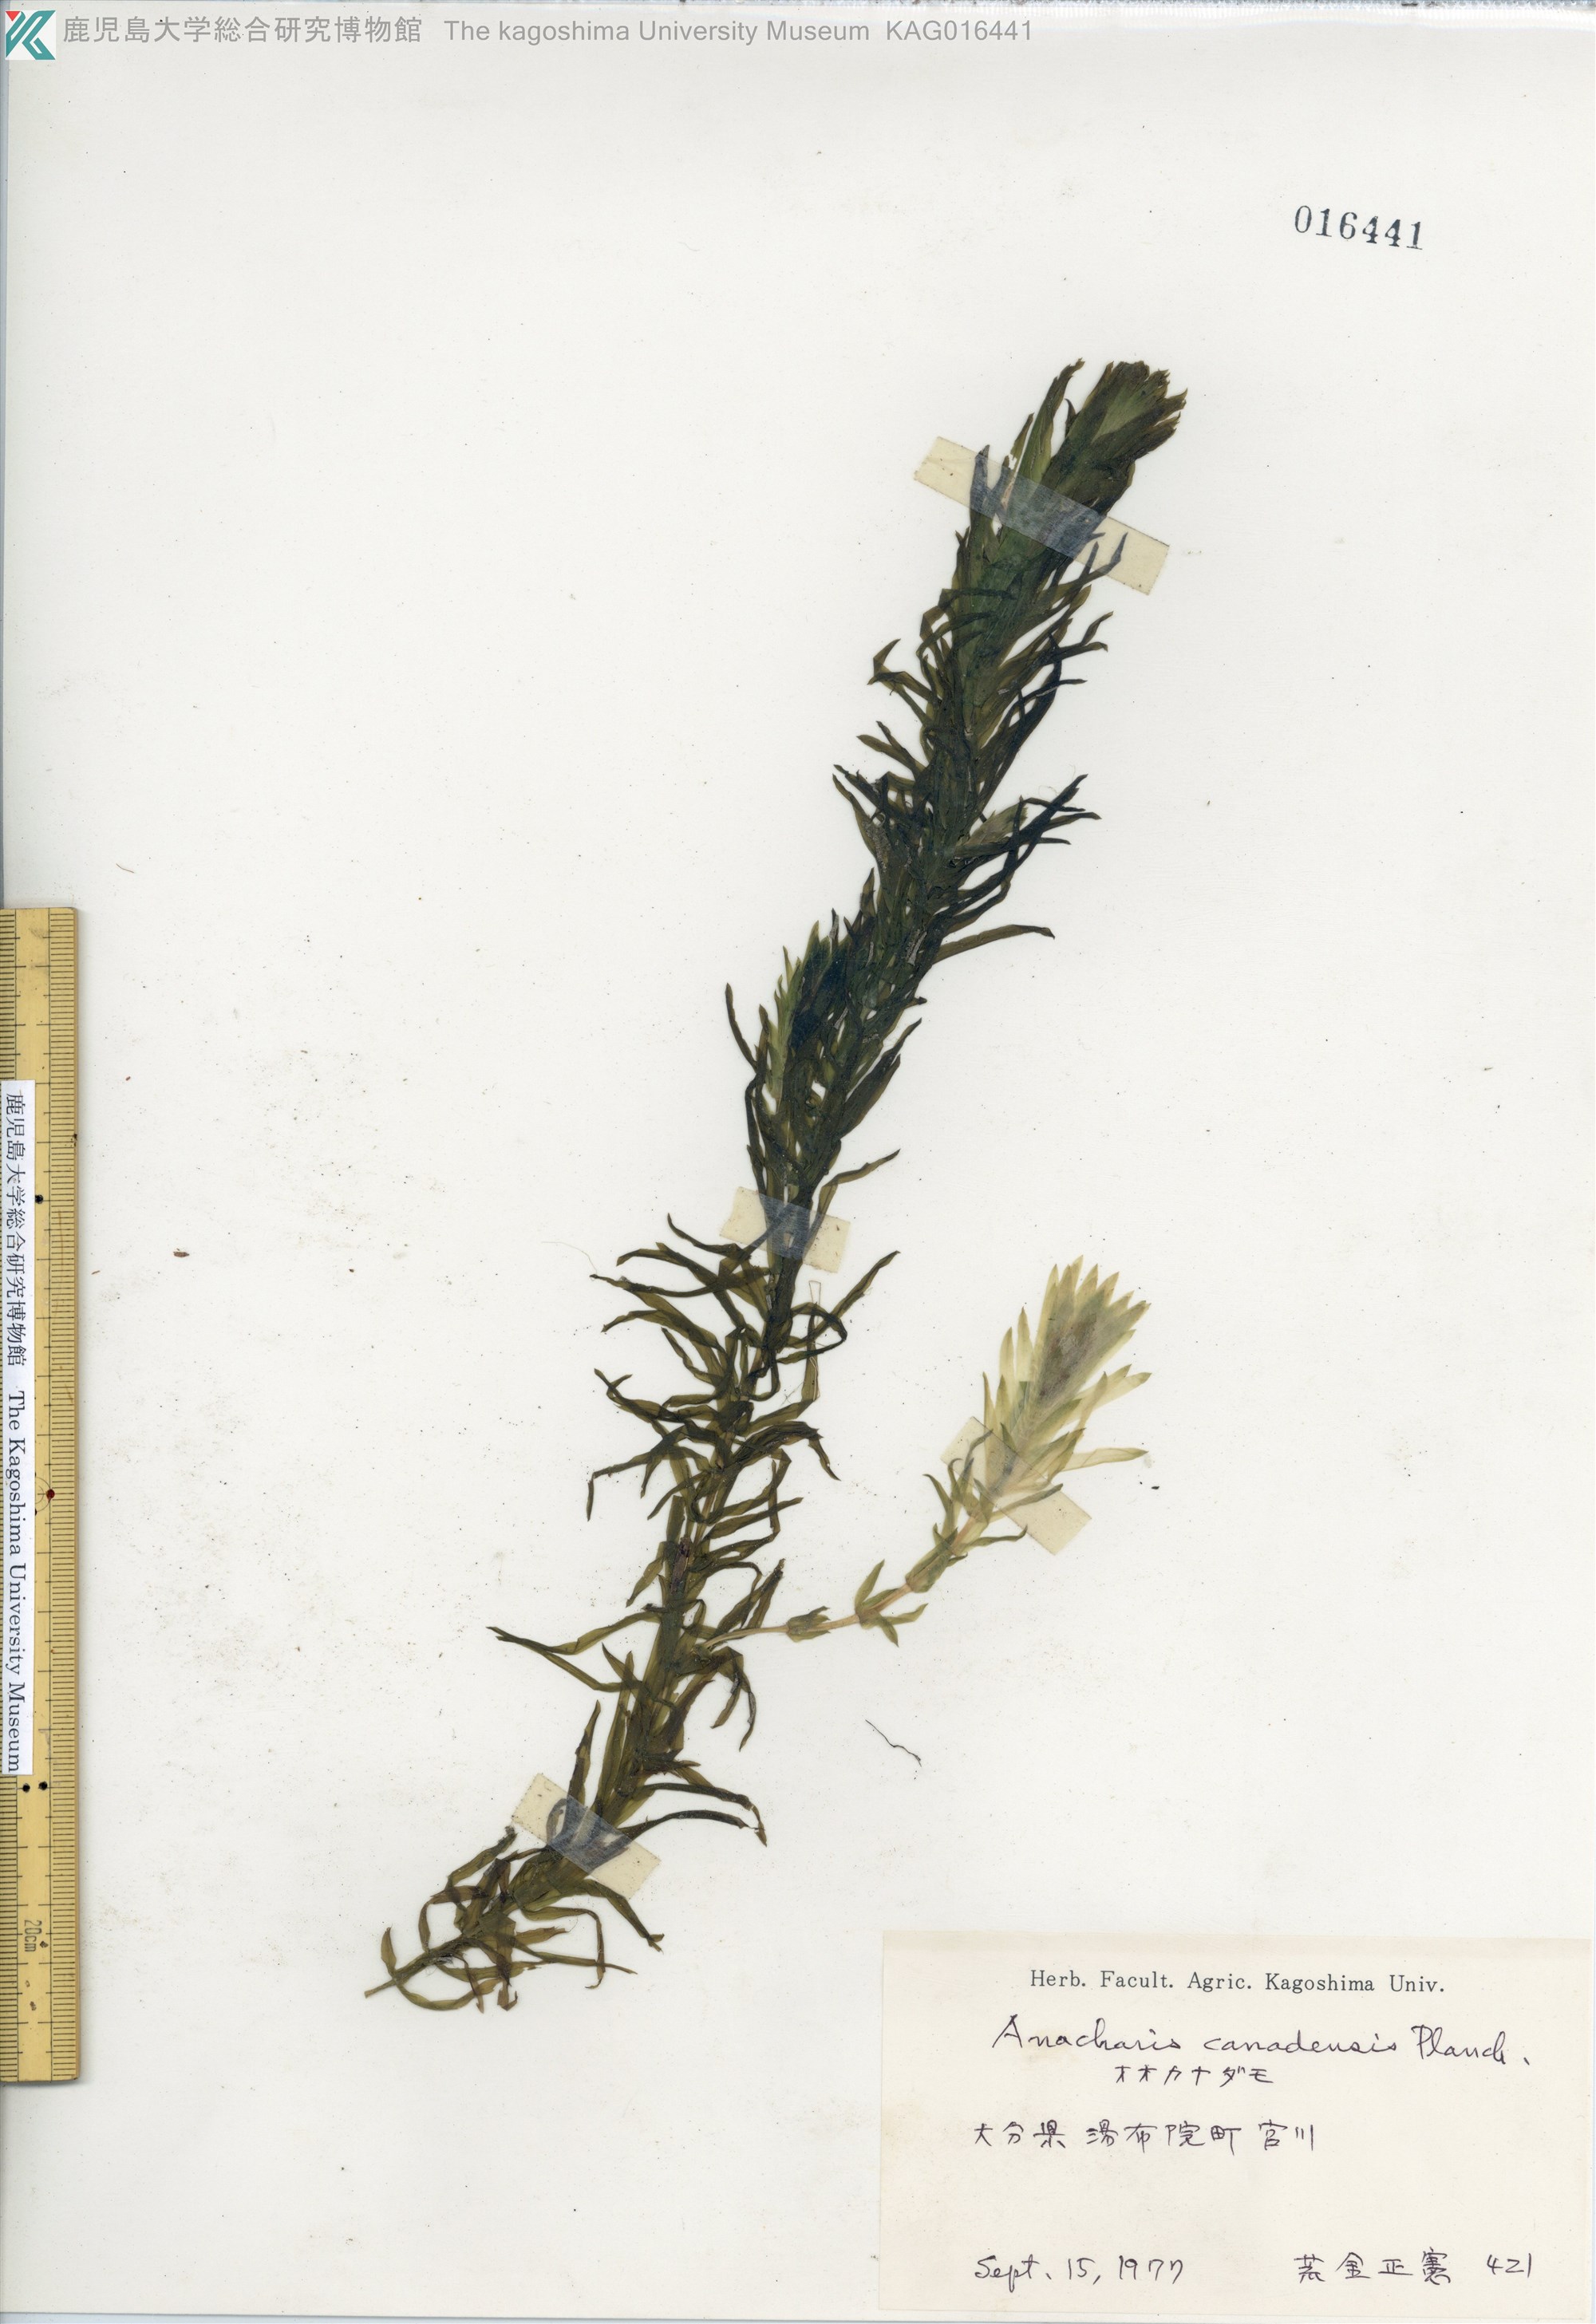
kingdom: Plantae
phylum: Tracheophyta
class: Liliopsida
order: Alismatales
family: Hydrocharitaceae
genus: Elodea
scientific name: Elodea densa
